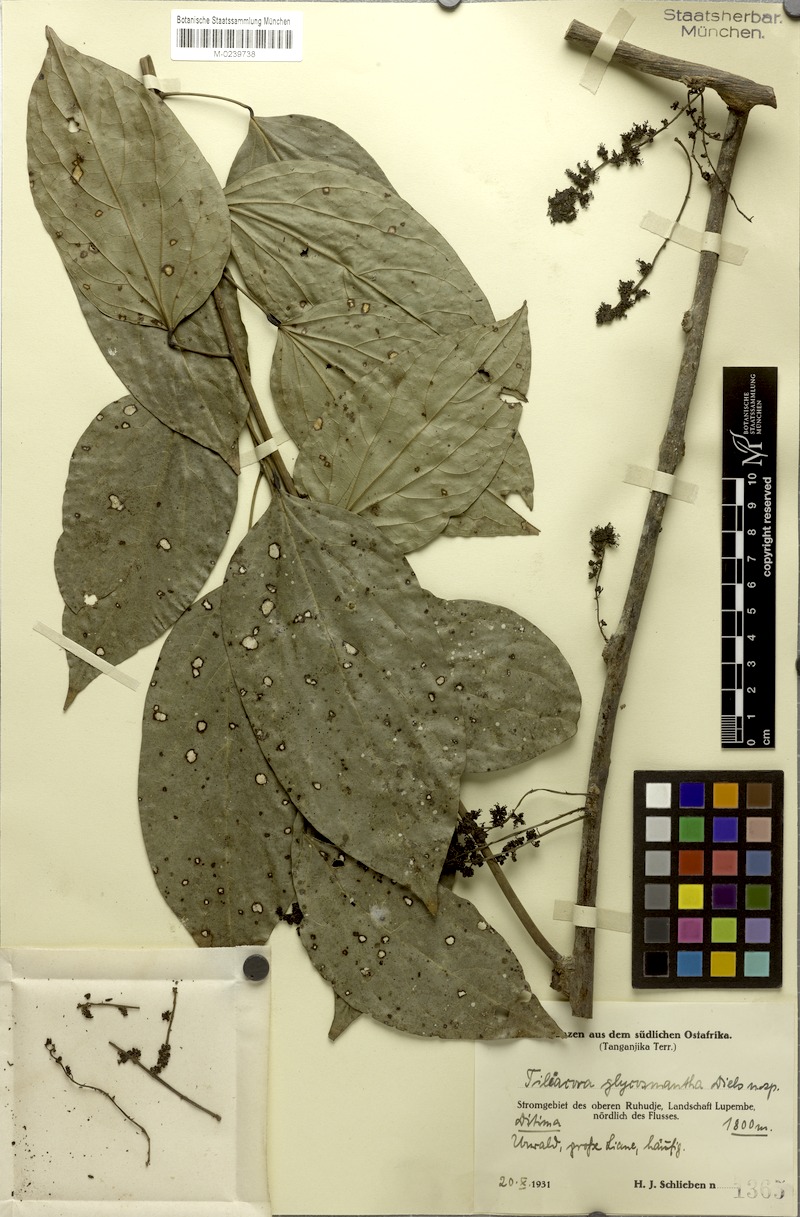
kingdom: Plantae
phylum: Tracheophyta
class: Magnoliopsida
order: Ranunculales
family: Menispermaceae
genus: Tiliacora
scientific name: Tiliacora funifera
